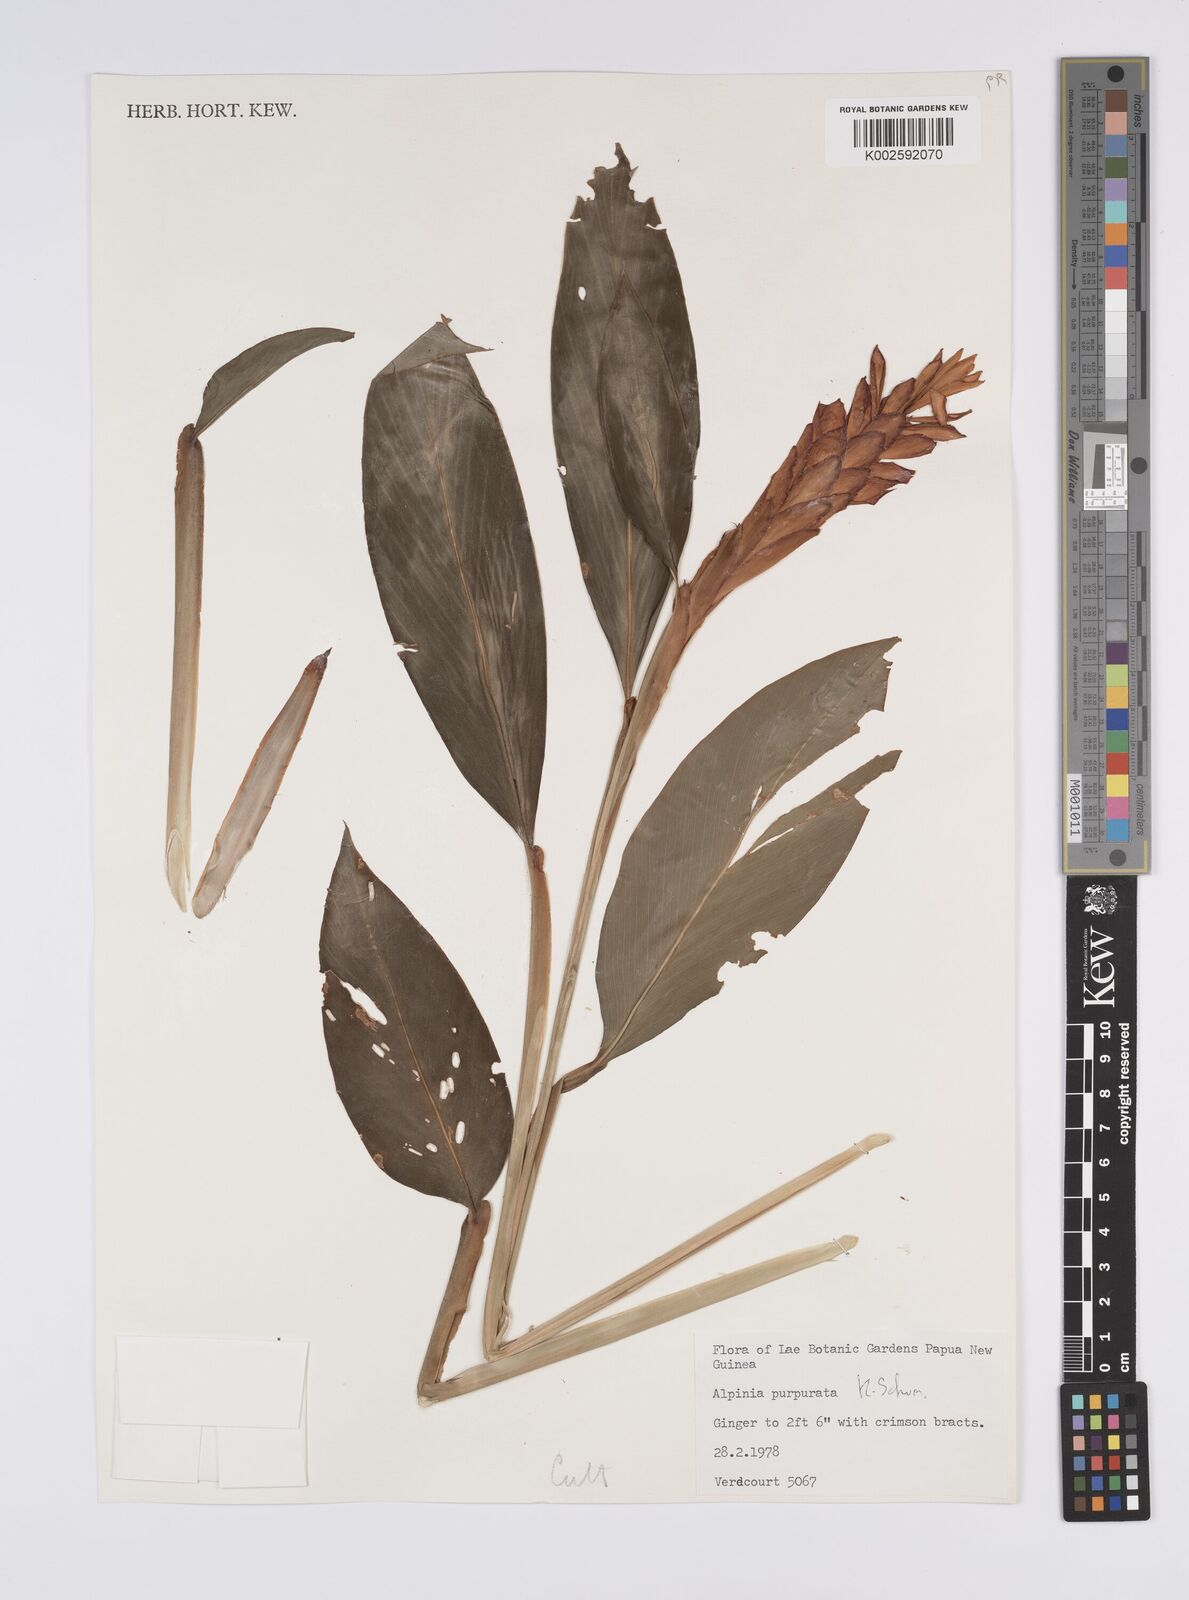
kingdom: Plantae
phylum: Tracheophyta
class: Liliopsida
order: Zingiberales
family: Zingiberaceae
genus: Alpinia
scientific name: Alpinia purpurata
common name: Red ginger
